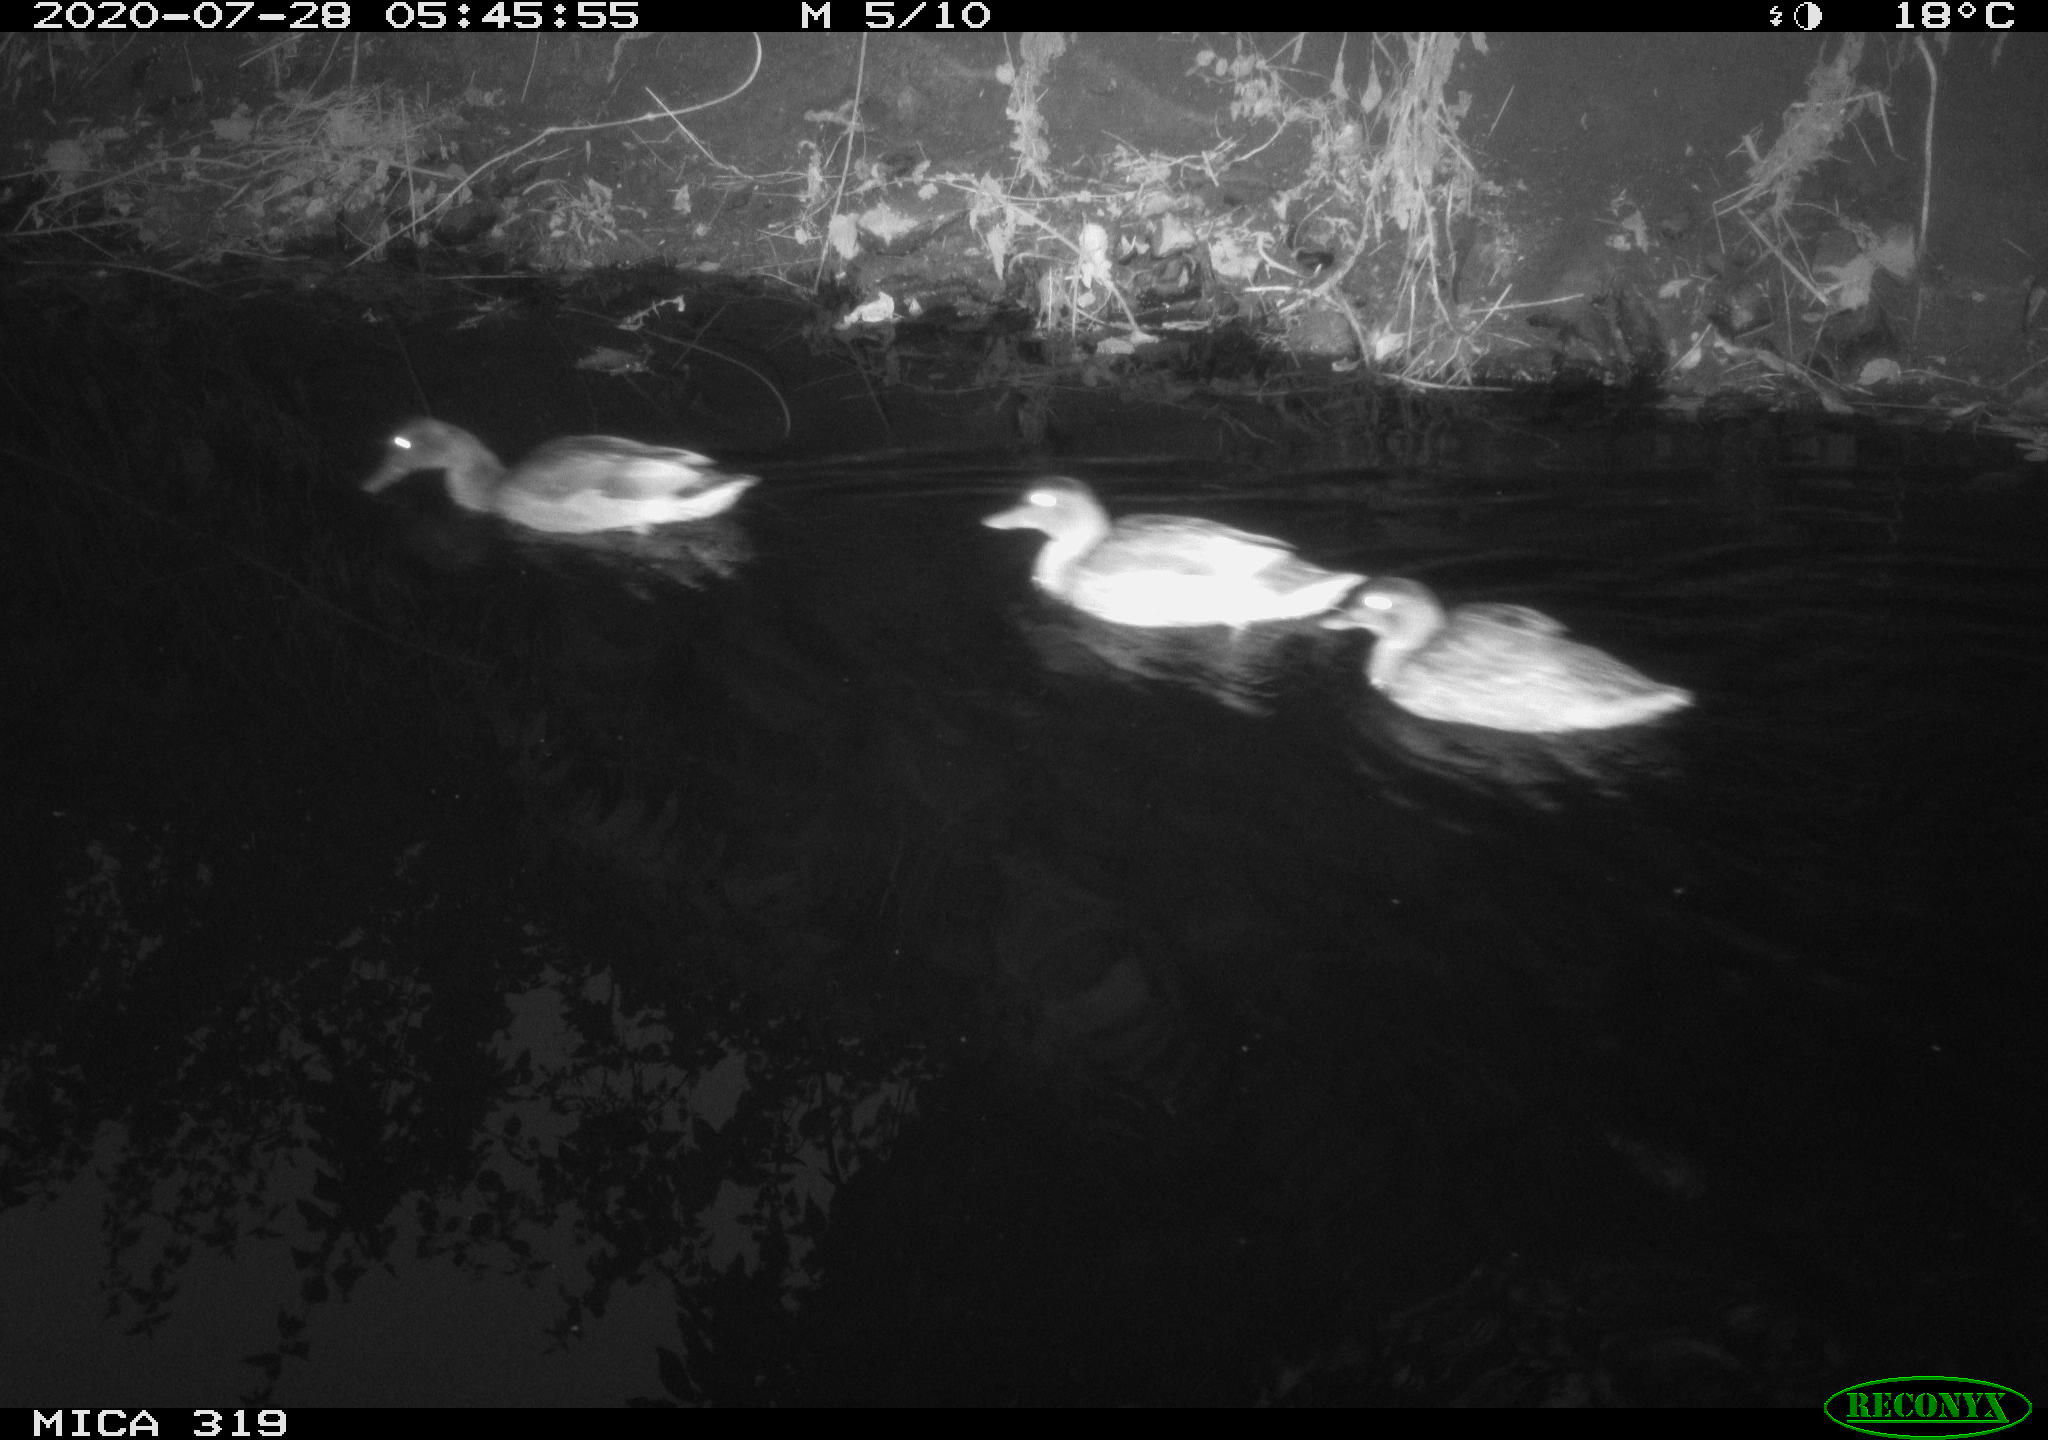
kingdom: Animalia
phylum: Chordata
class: Aves
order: Anseriformes
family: Anatidae
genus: Anas
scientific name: Anas platyrhynchos
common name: Mallard
